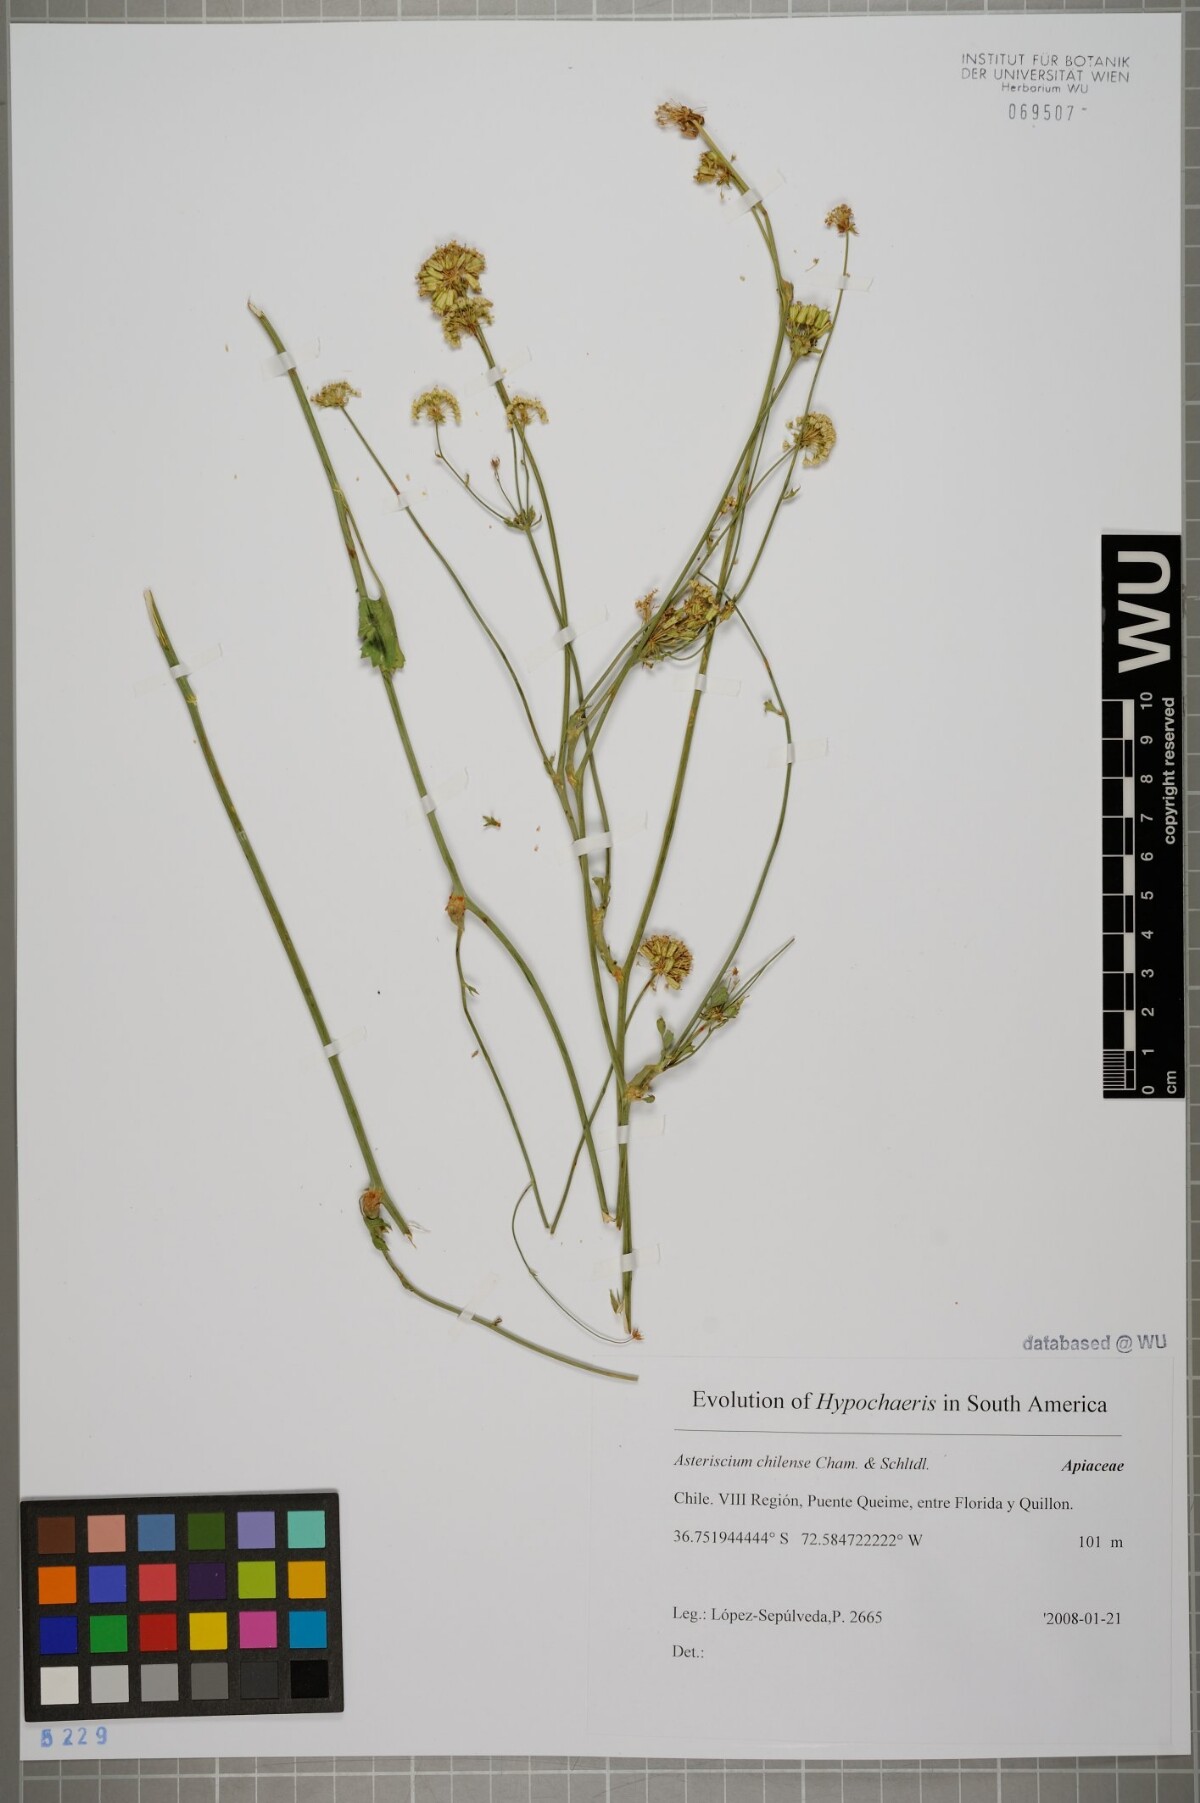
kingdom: Plantae
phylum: Tracheophyta
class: Magnoliopsida
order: Apiales
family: Apiaceae
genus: Asteriscium
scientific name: Asteriscium chilense
